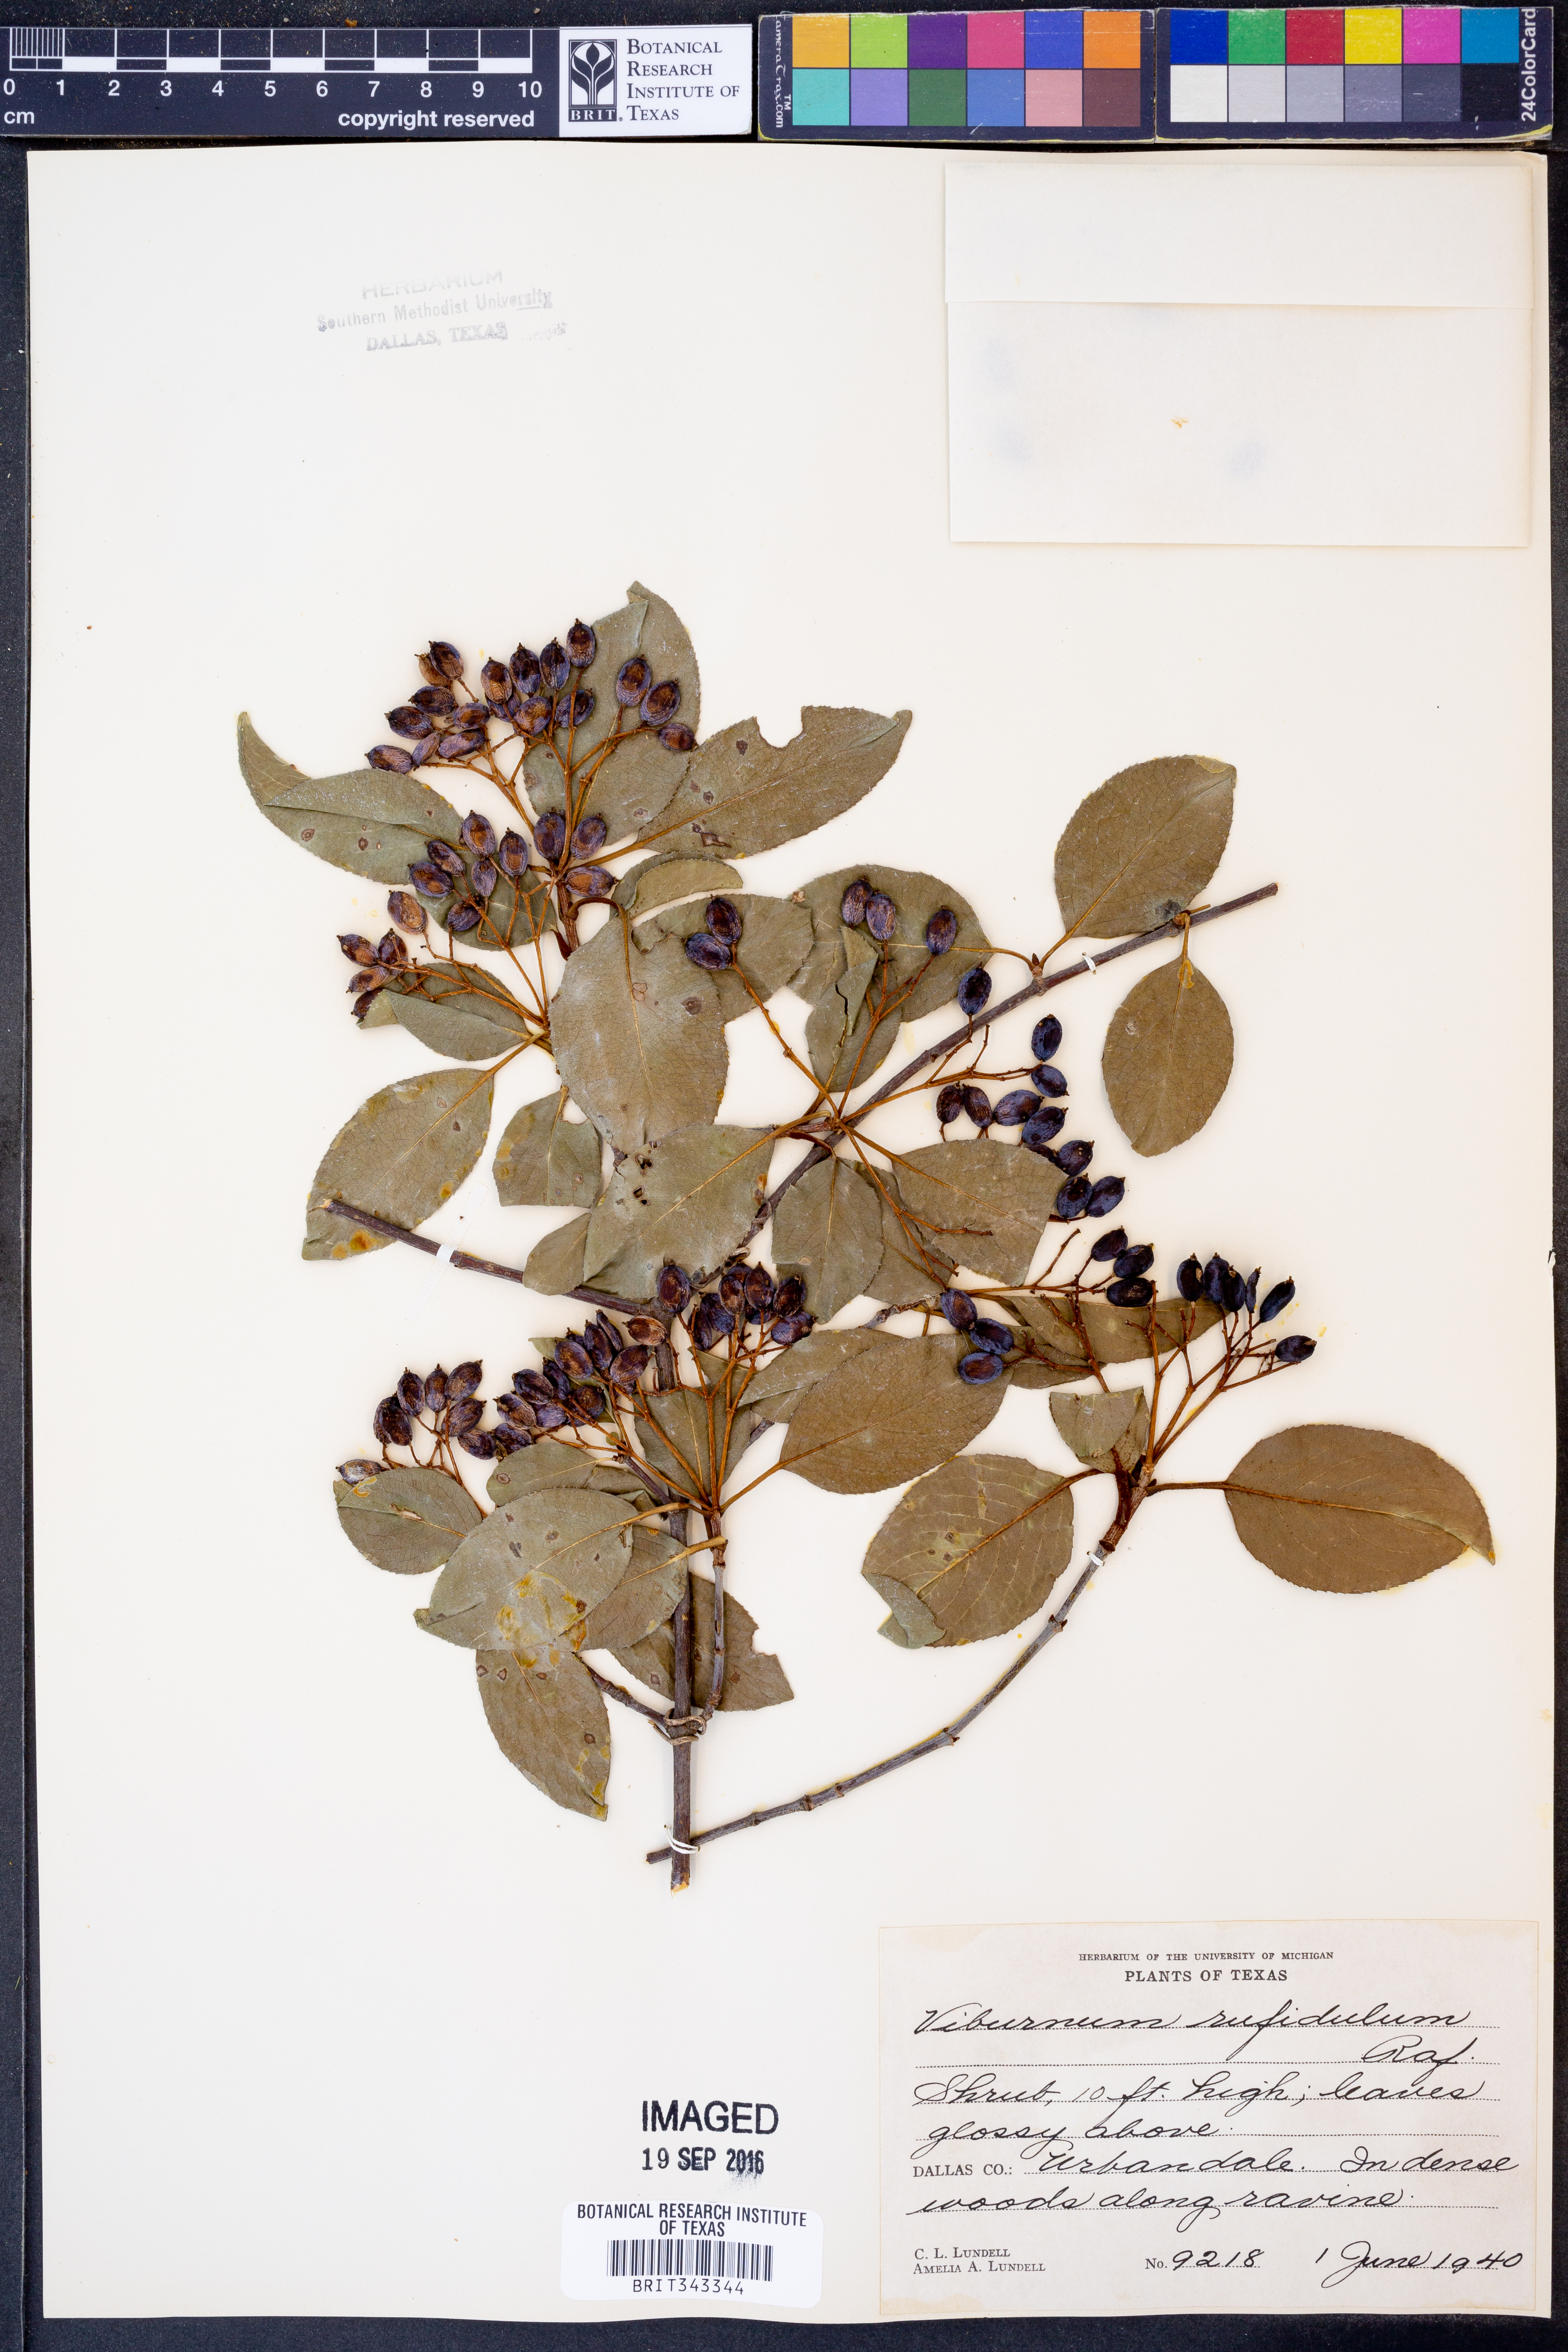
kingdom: Plantae
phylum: Tracheophyta
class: Magnoliopsida
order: Dipsacales
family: Viburnaceae
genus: Viburnum
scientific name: Viburnum rufidulum
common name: Blue haw
